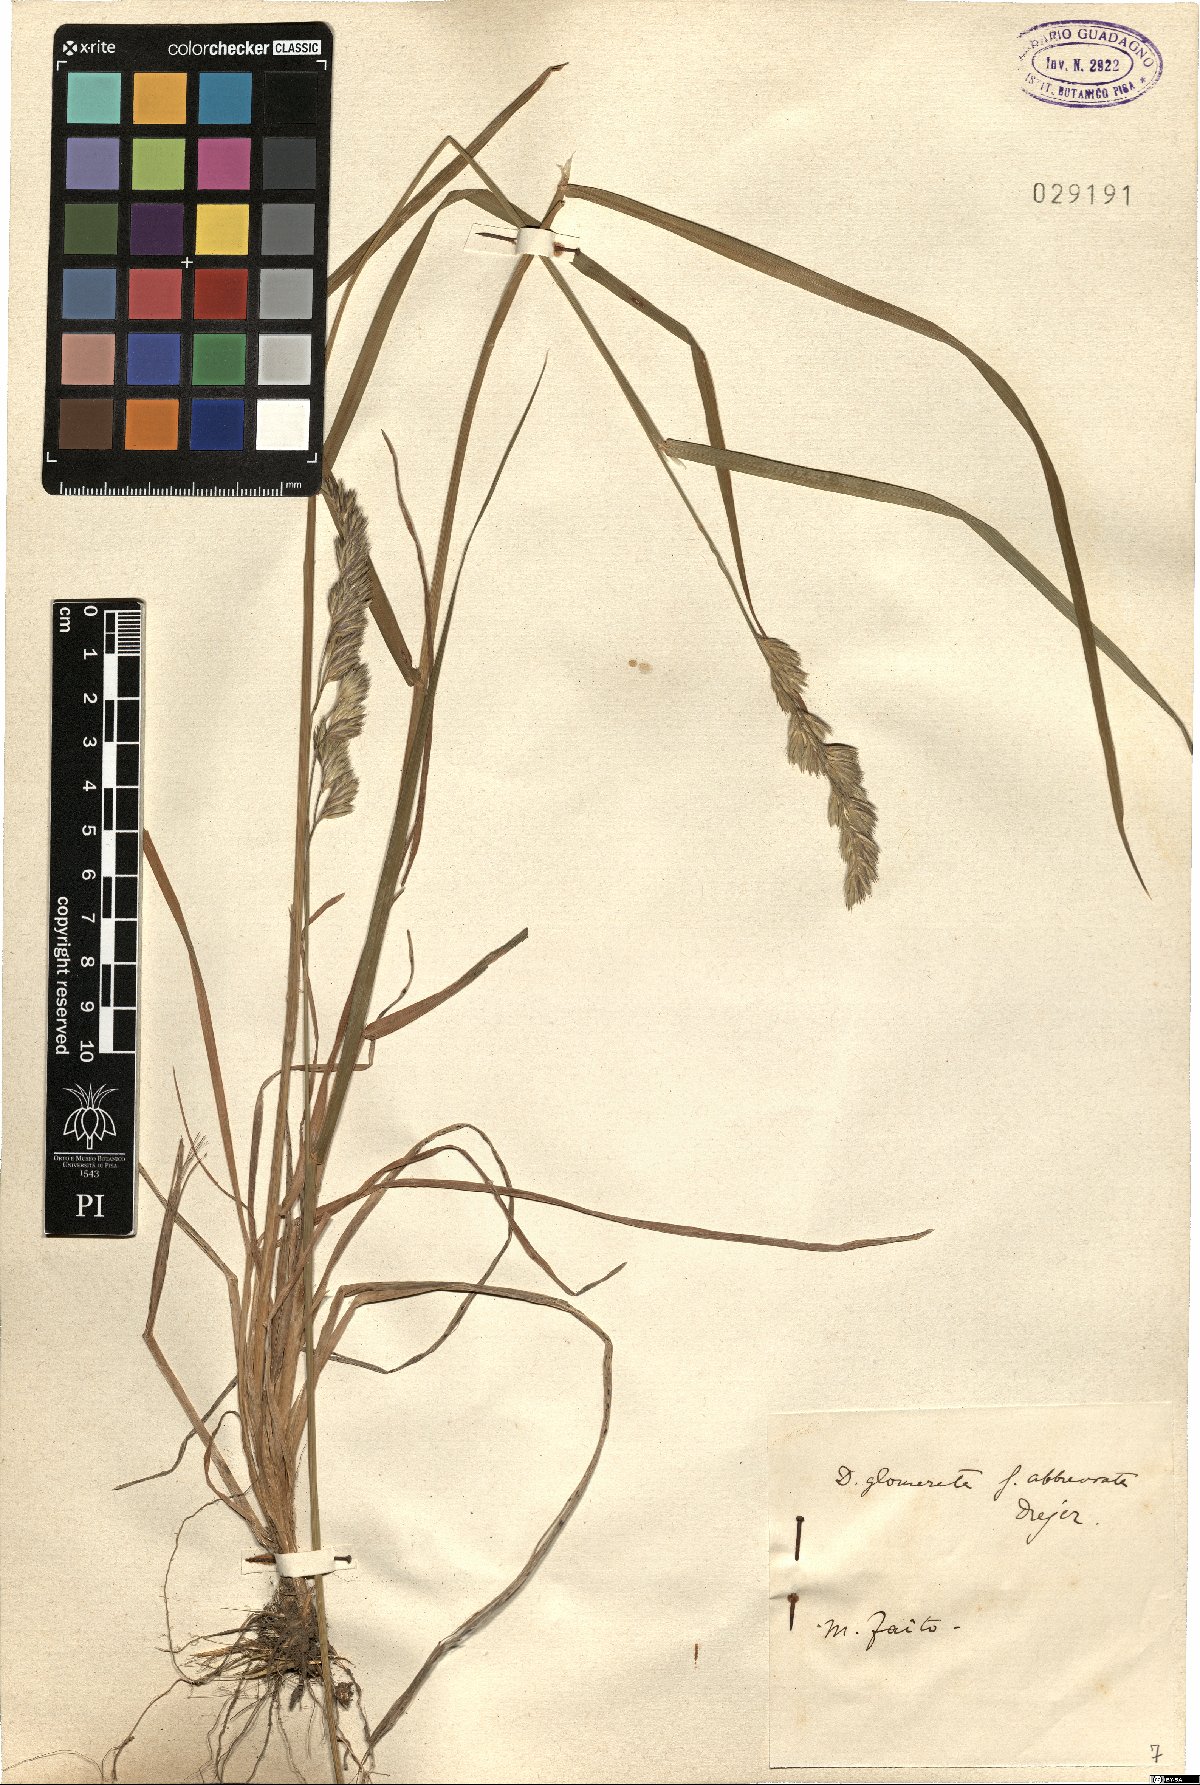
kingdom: Plantae
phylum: Tracheophyta
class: Liliopsida
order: Poales
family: Poaceae
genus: Dactylis
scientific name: Dactylis glomerata
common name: Orchardgrass
